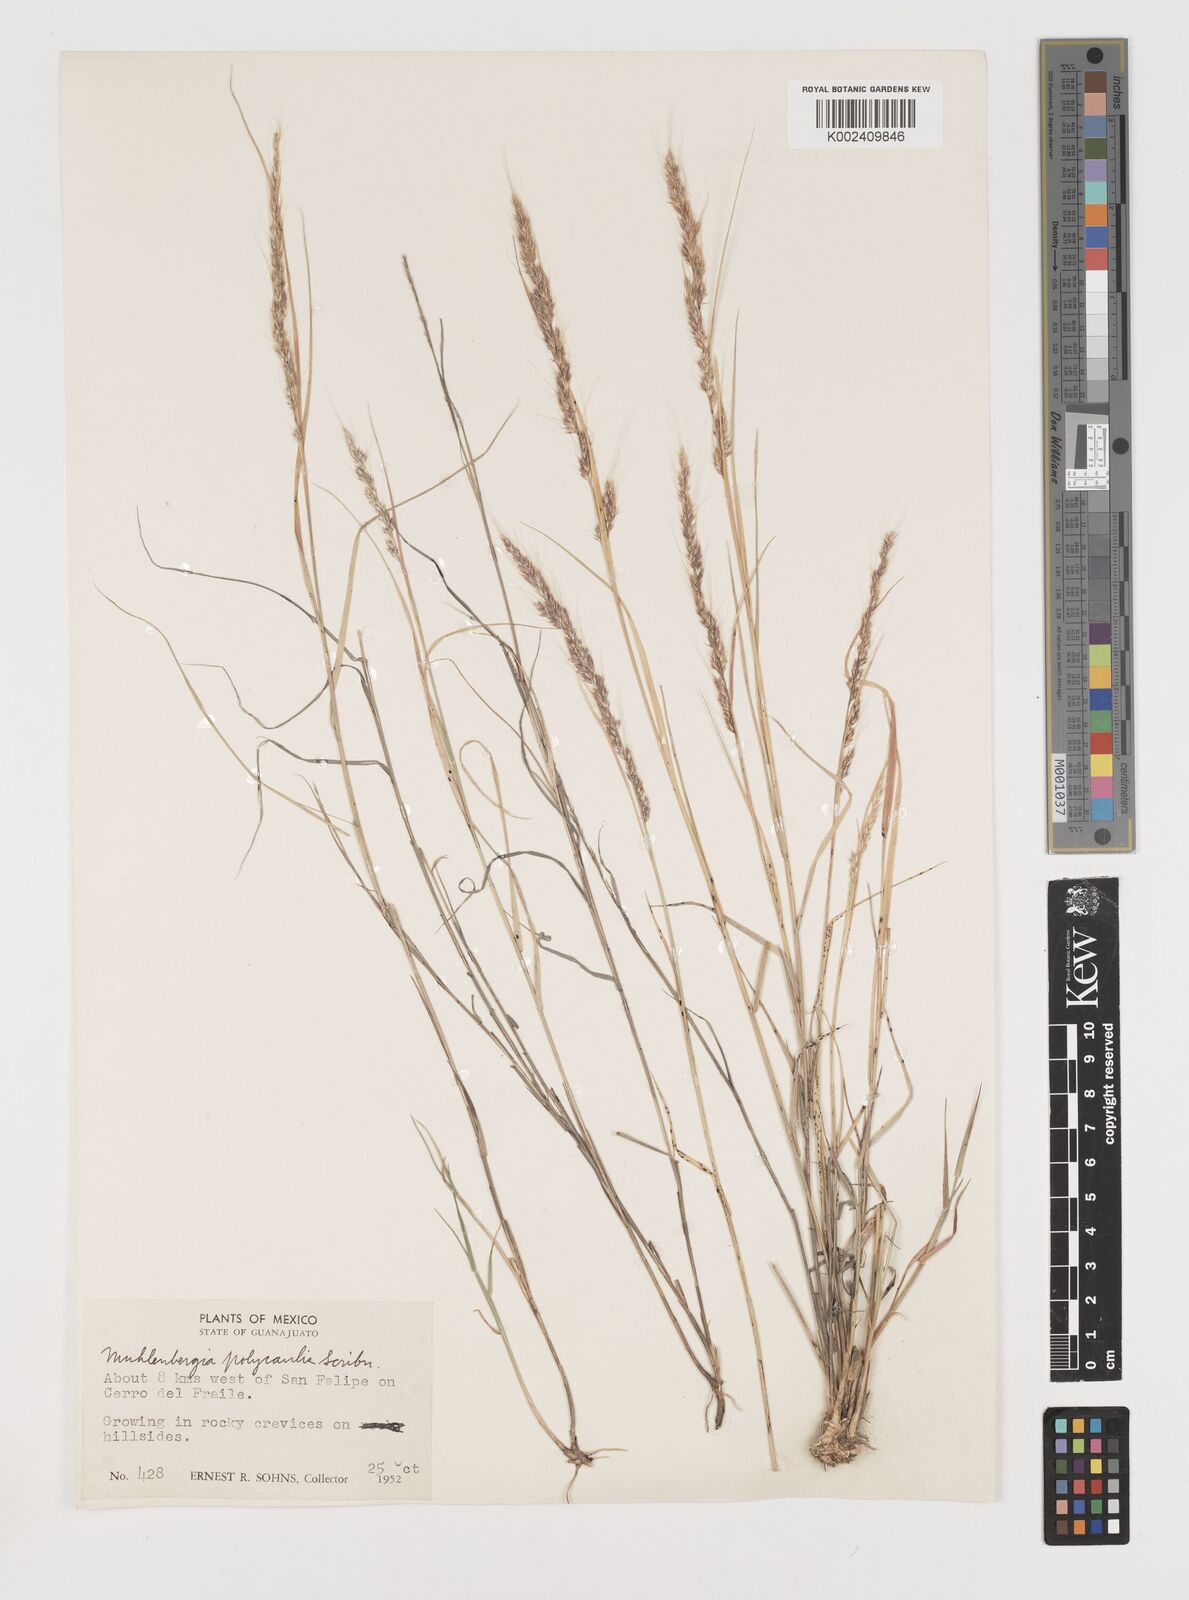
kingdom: Plantae
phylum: Tracheophyta
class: Liliopsida
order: Poales
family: Poaceae
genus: Muhlenbergia
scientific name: Muhlenbergia polycaulis
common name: Cliff muhly
